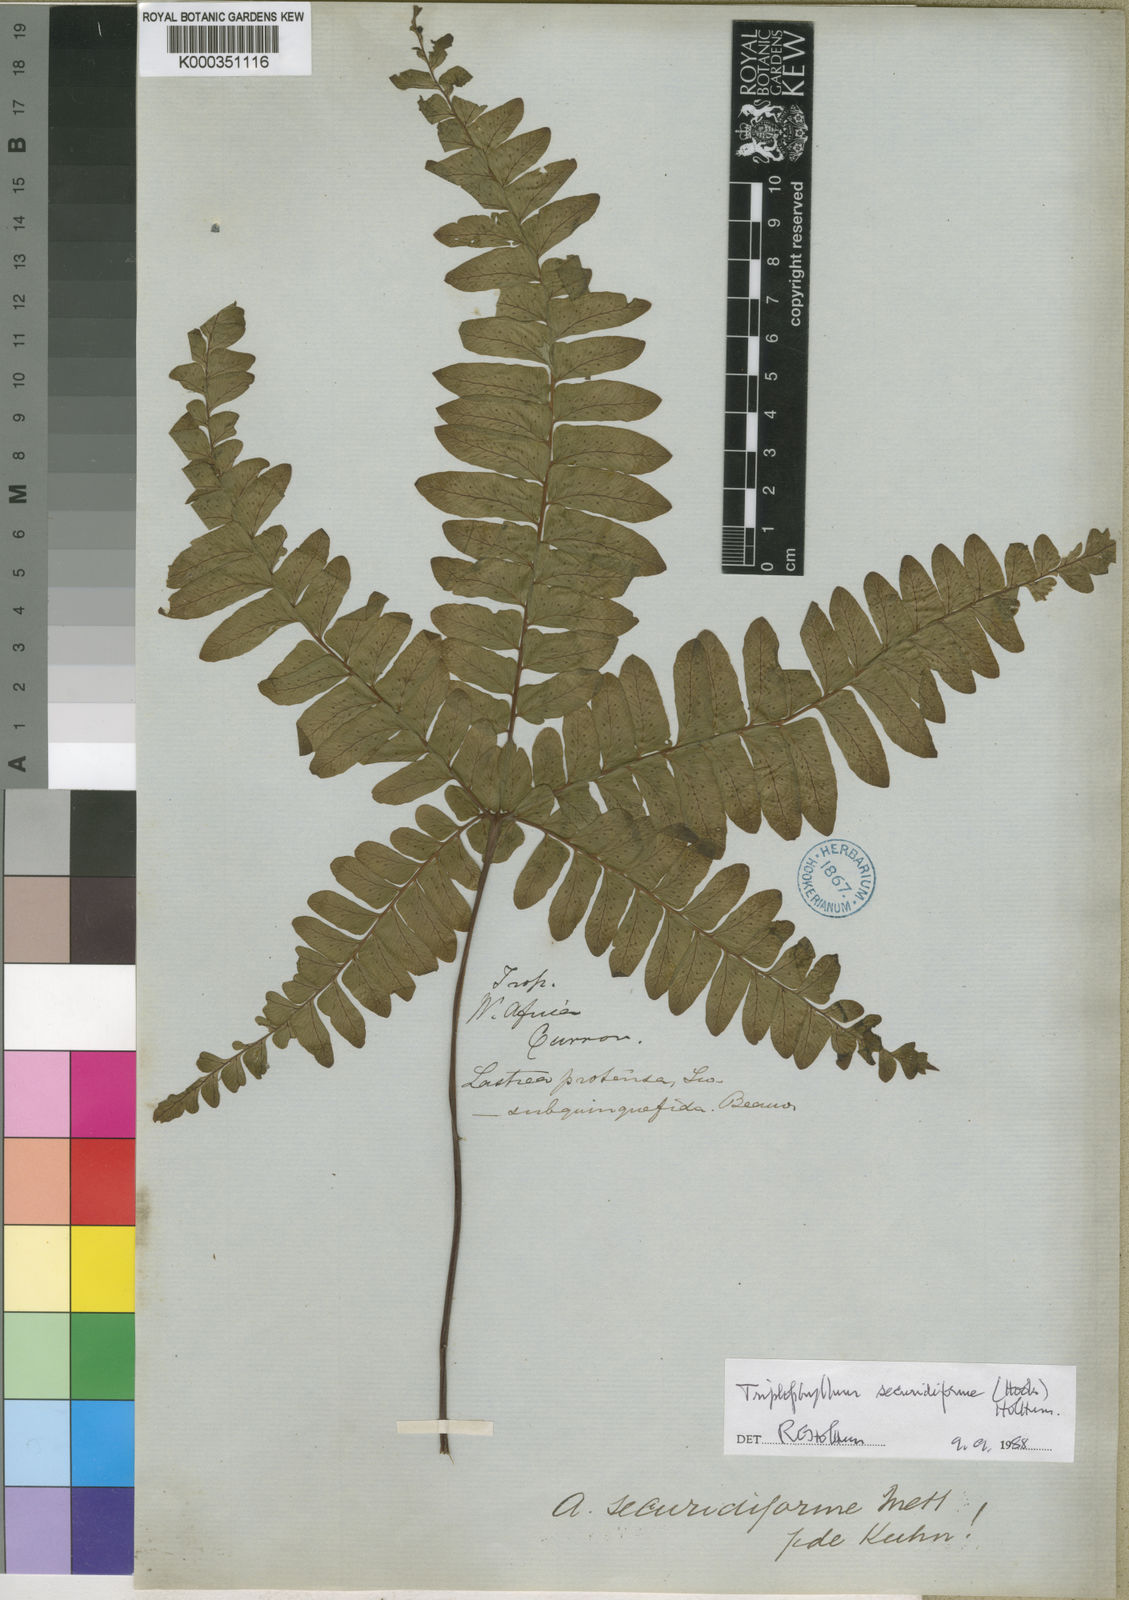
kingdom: Plantae
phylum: Tracheophyta
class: Polypodiopsida
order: Polypodiales
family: Tectariaceae
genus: Triplophyllum
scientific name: Triplophyllum securidiforme
